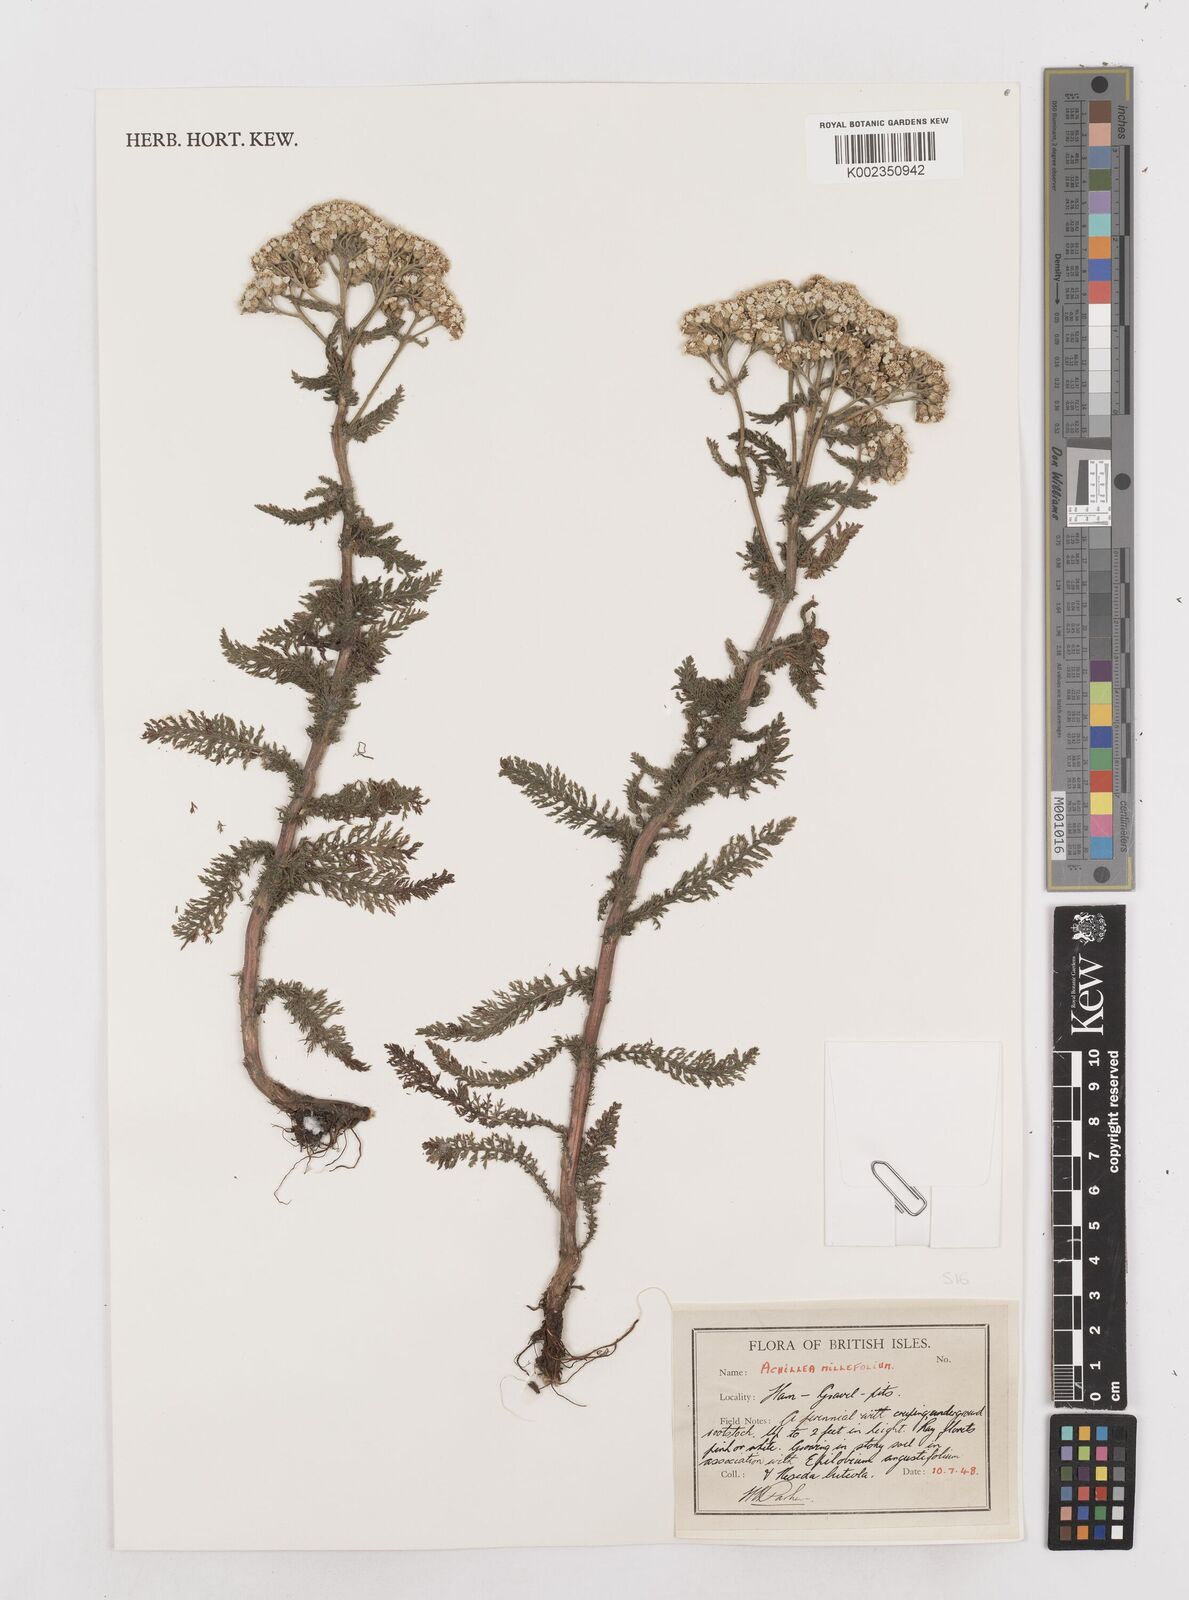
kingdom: Plantae
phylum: Tracheophyta
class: Magnoliopsida
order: Asterales
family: Asteraceae
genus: Achillea
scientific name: Achillea millefolium
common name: Yarrow
